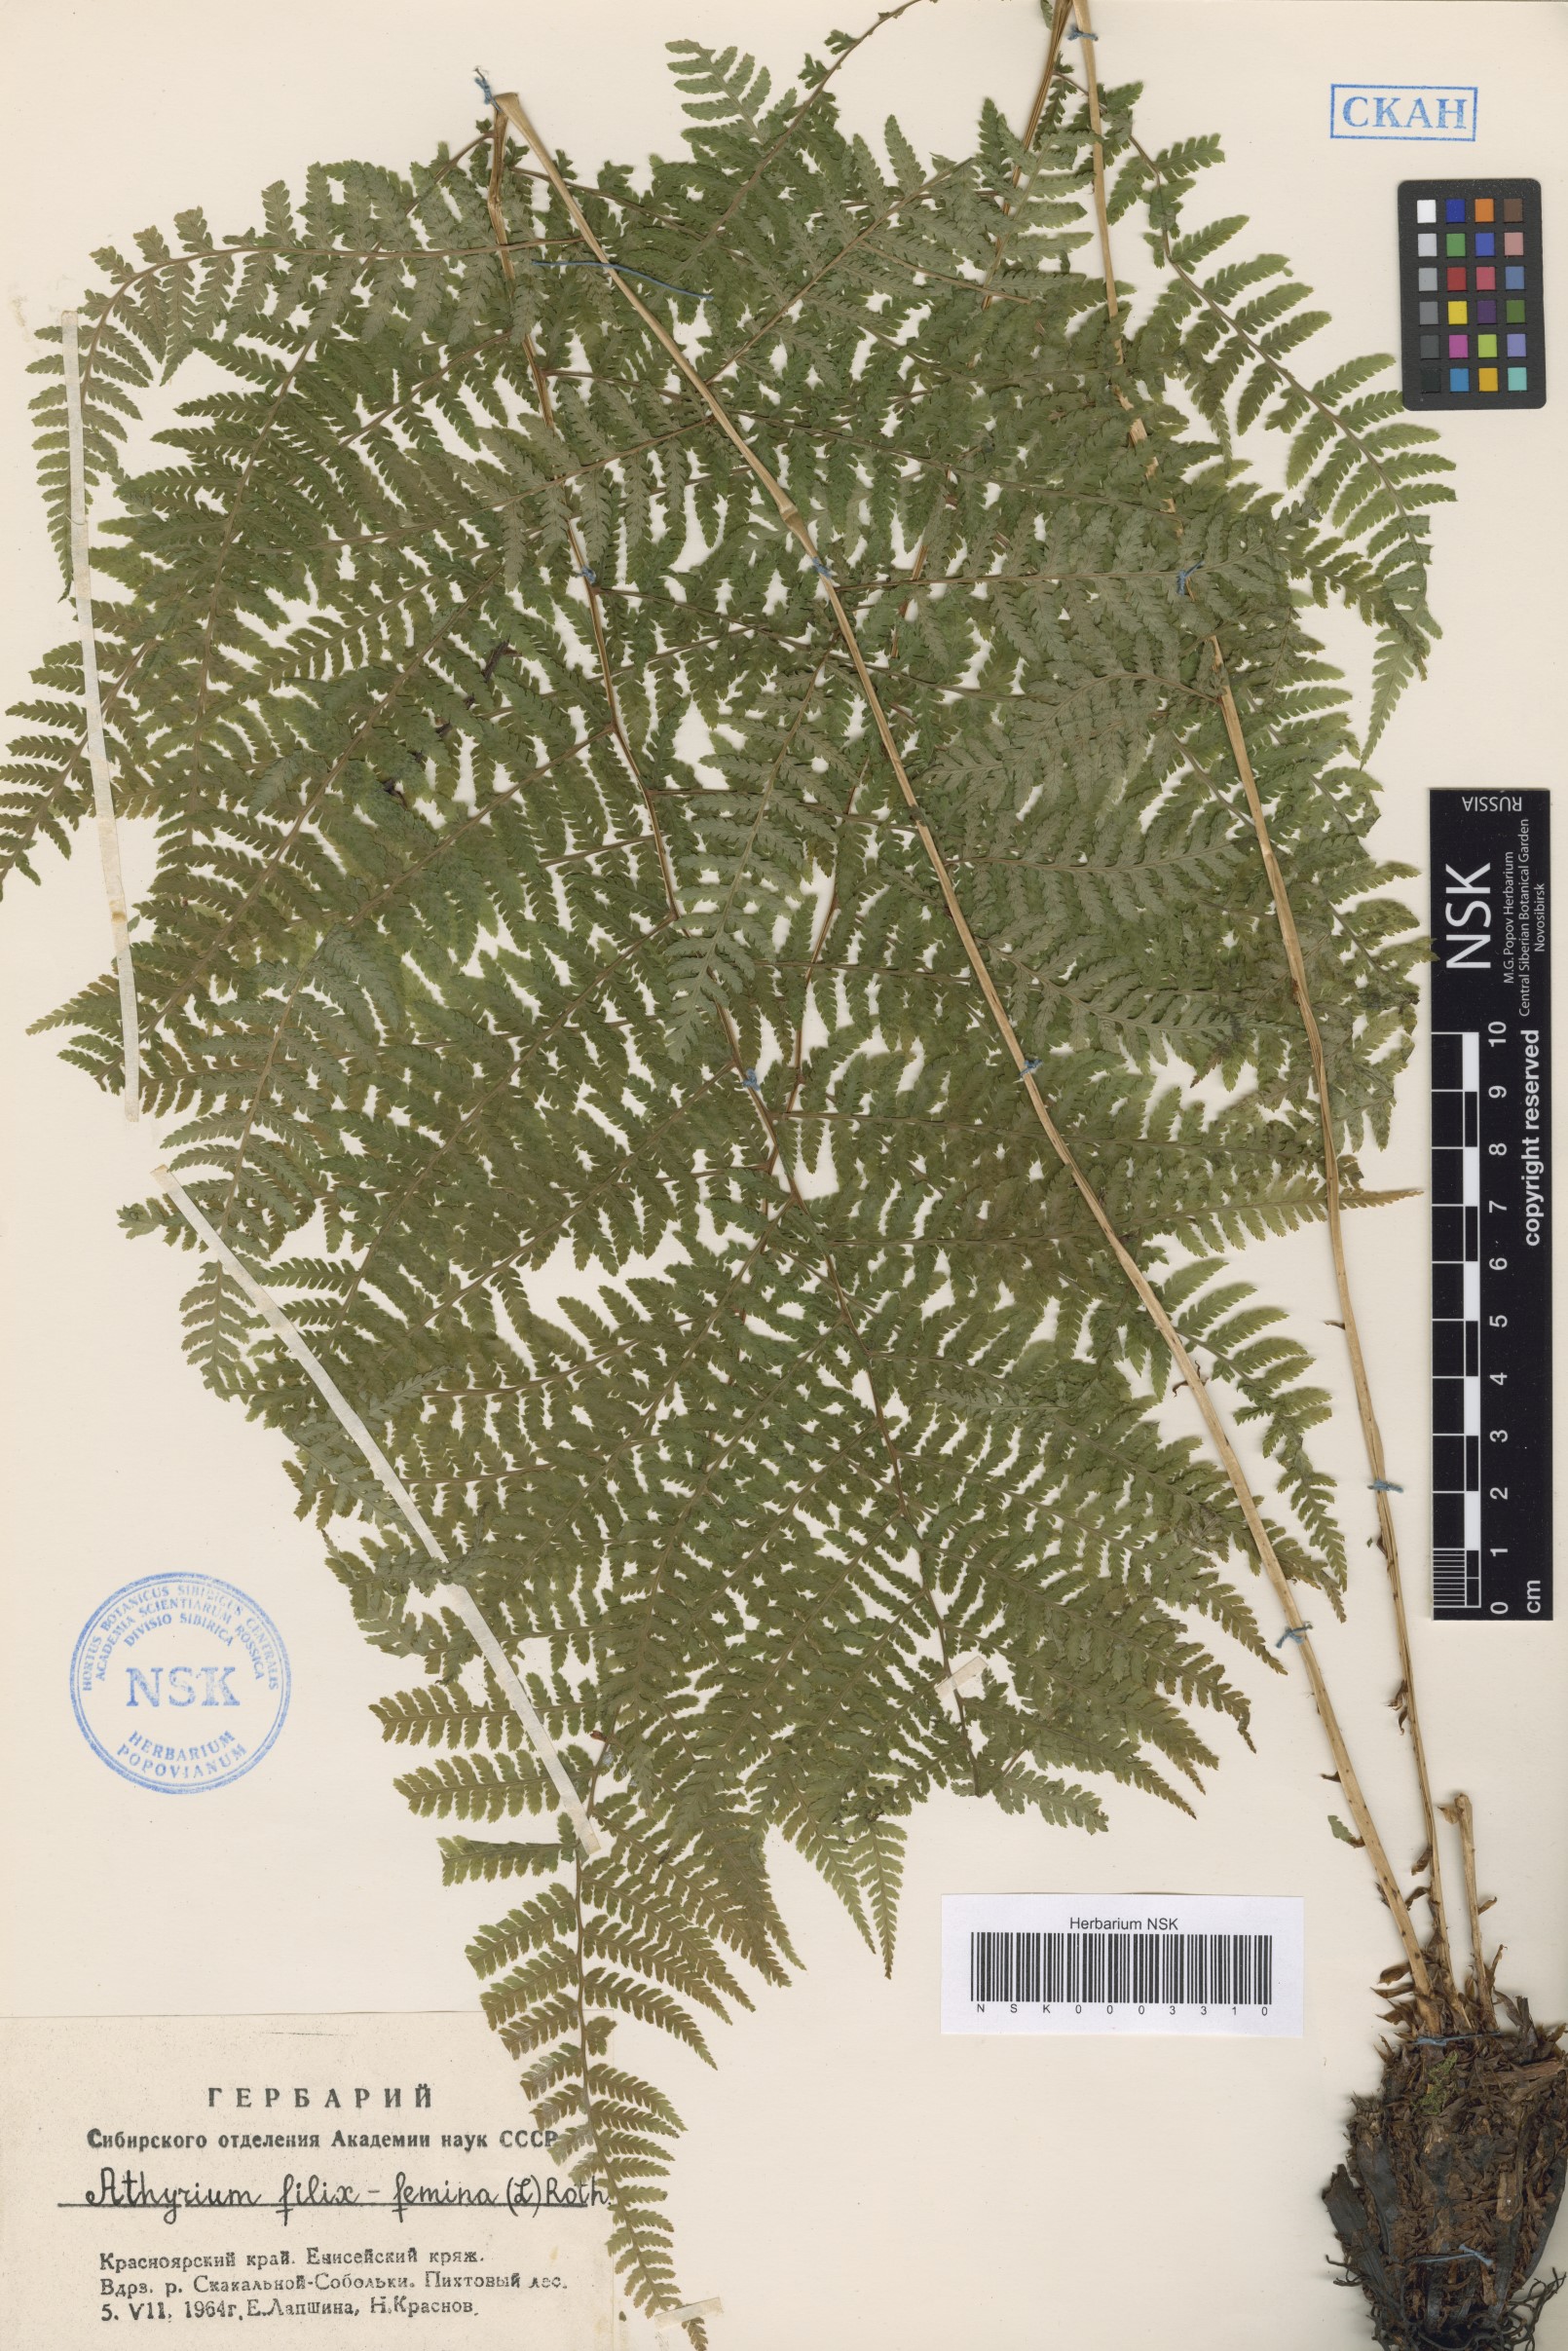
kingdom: Plantae
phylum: Tracheophyta
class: Polypodiopsida
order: Polypodiales
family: Athyriaceae
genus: Athyrium
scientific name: Athyrium filix-femina
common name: Lady fern
